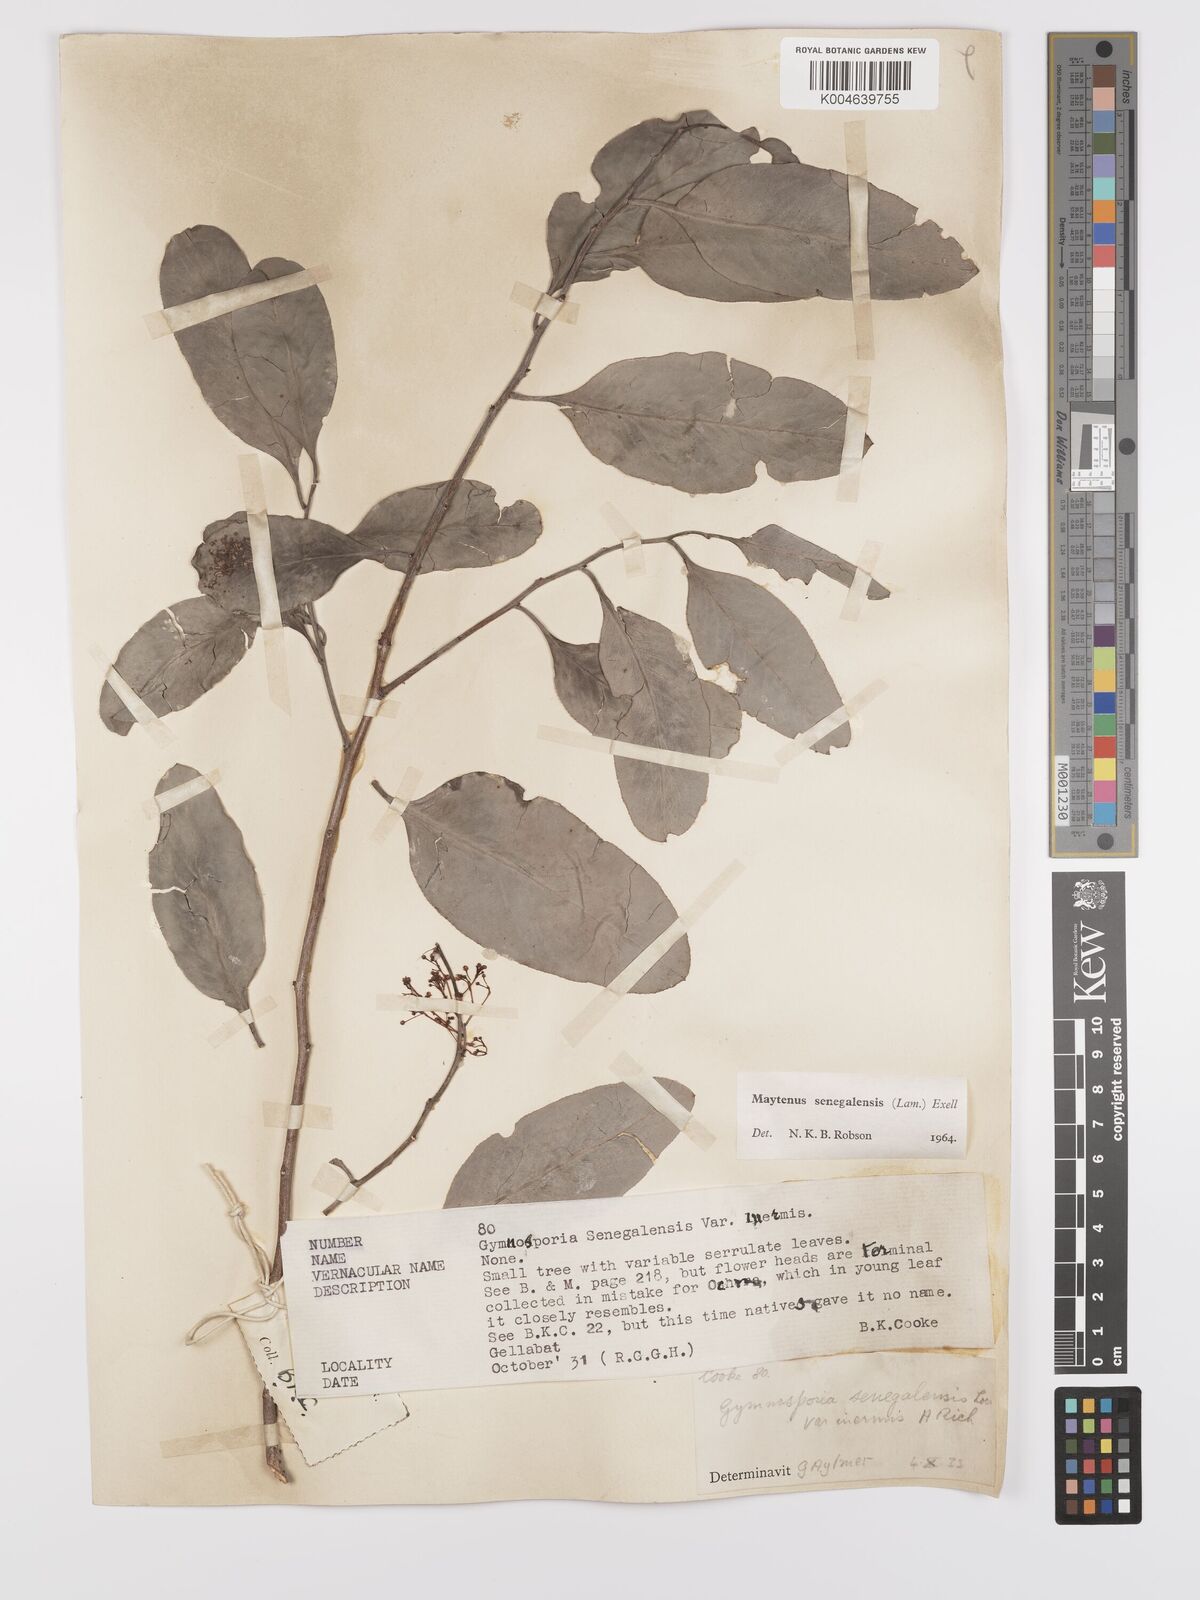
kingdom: Plantae
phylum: Tracheophyta
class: Magnoliopsida
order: Celastrales
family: Celastraceae
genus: Gymnosporia
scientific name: Gymnosporia senegalensis
